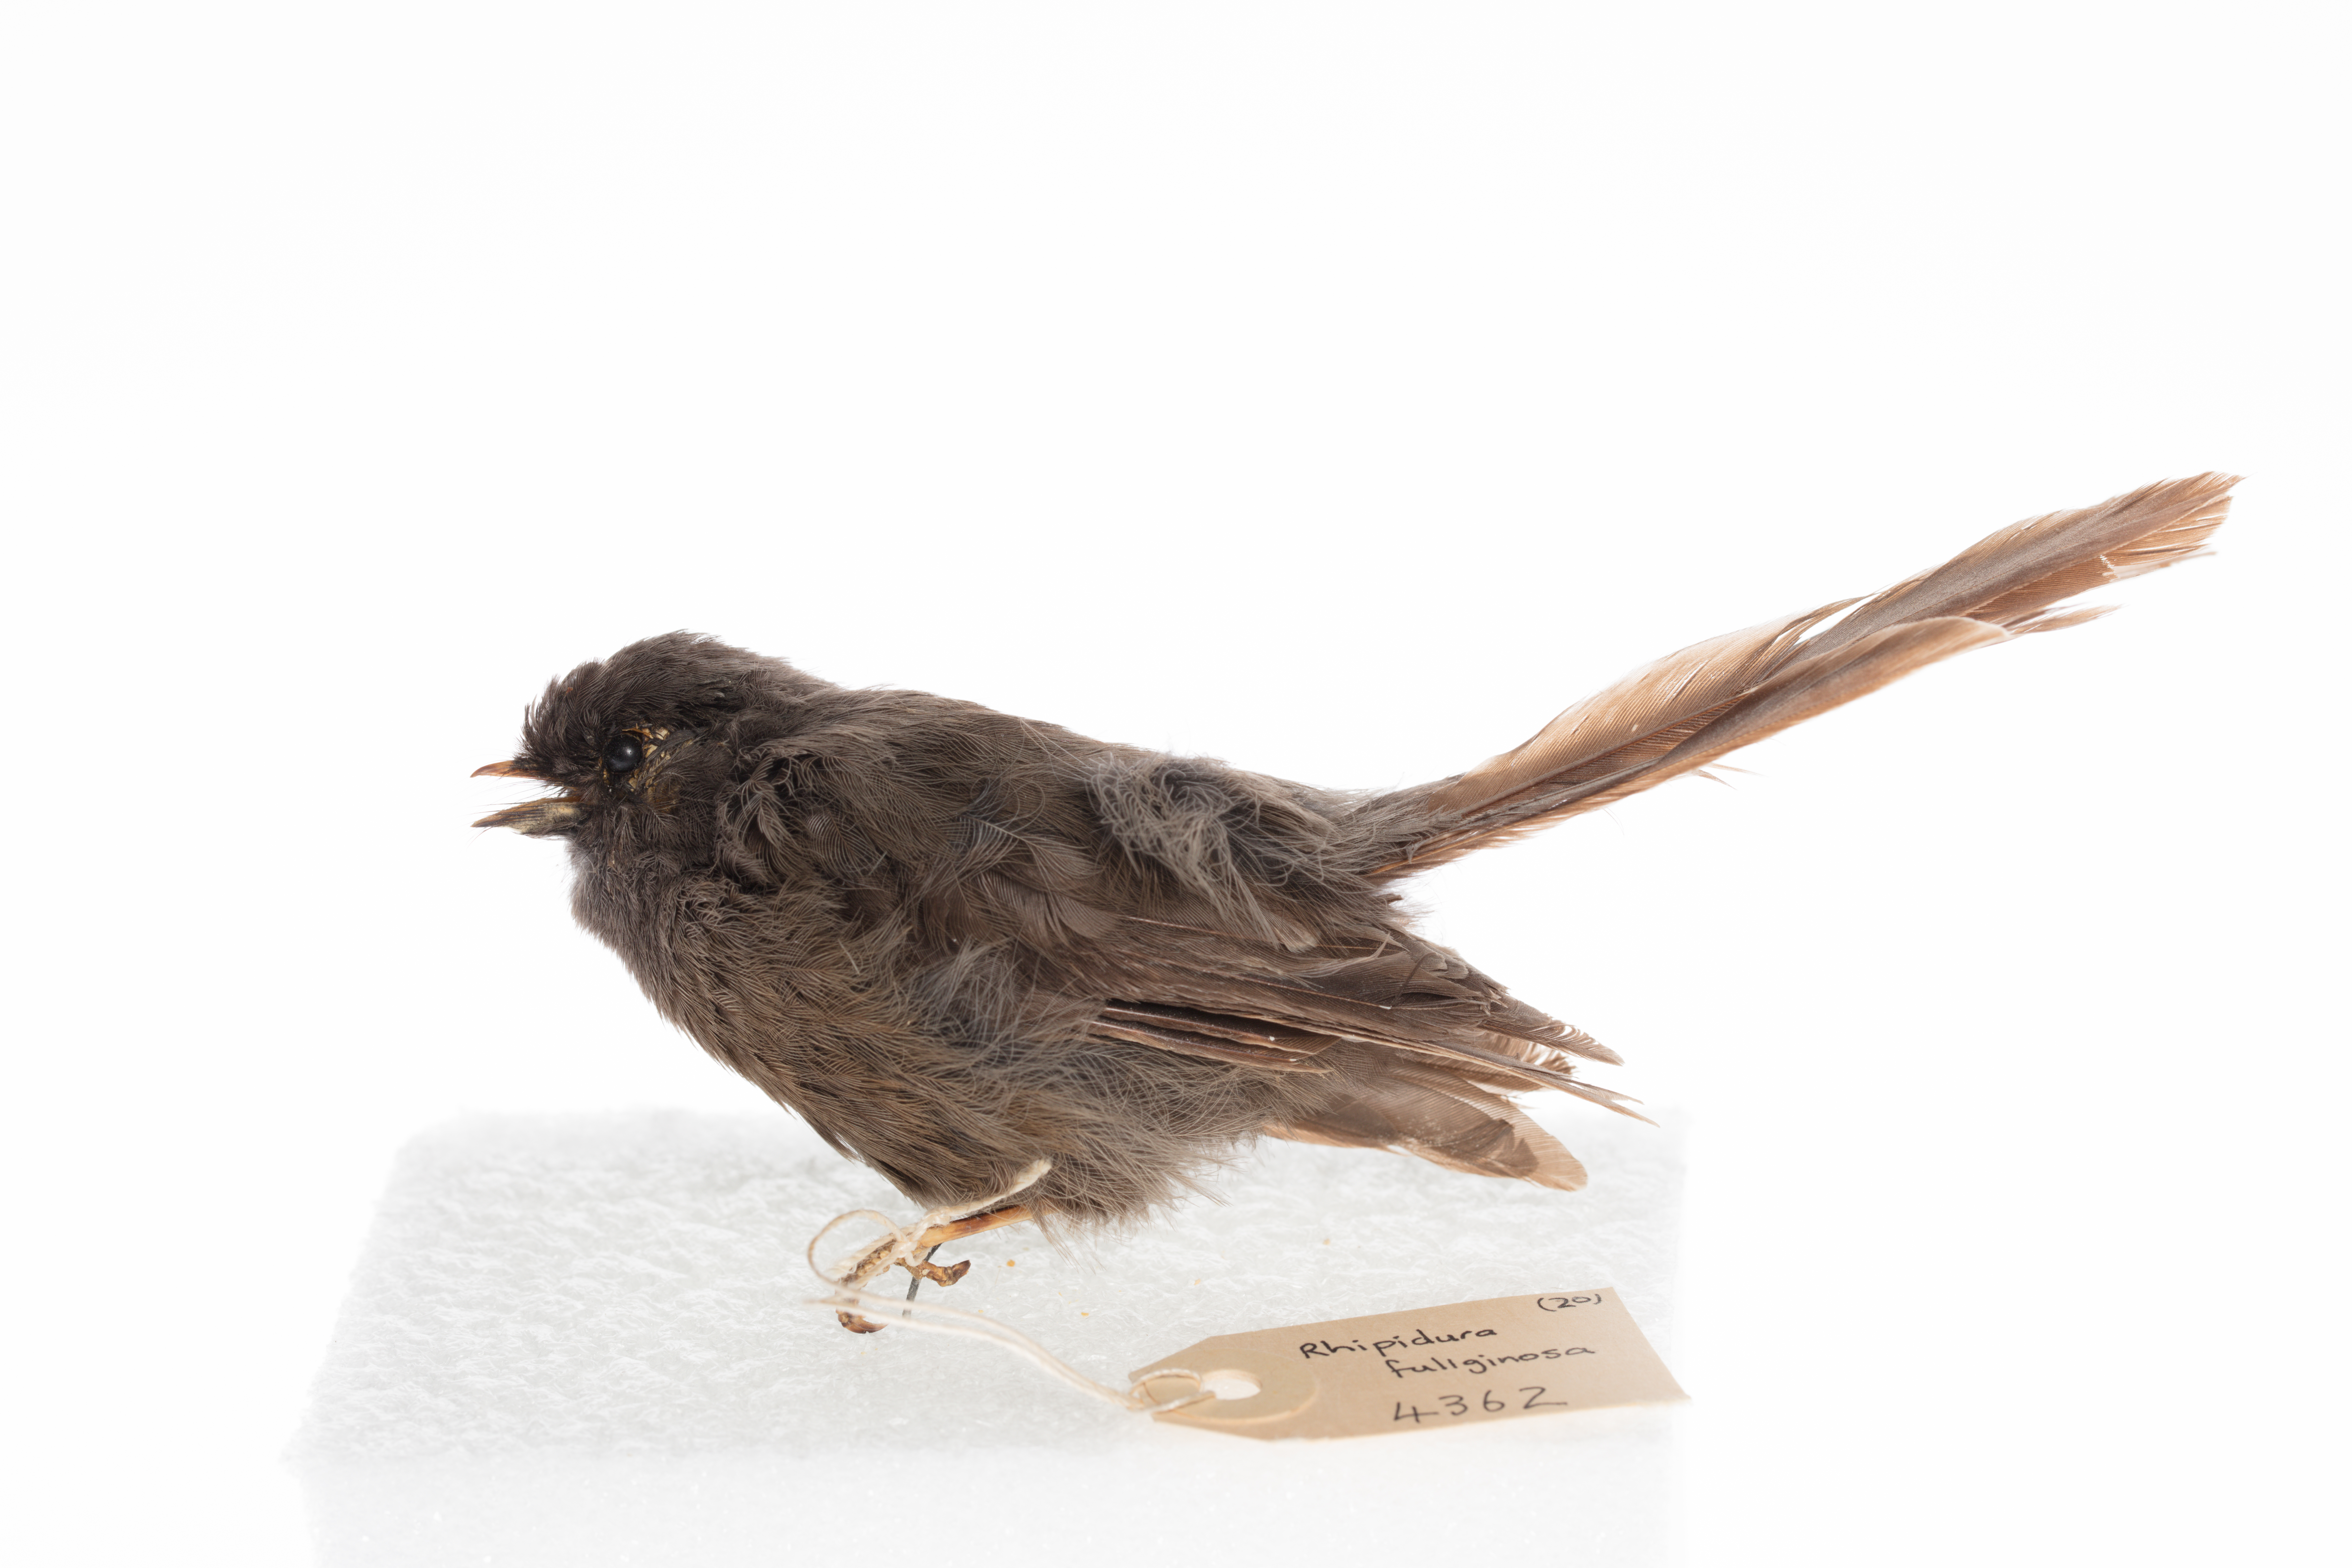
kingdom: Animalia
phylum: Chordata
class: Aves
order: Passeriformes
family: Rhipiduridae
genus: Rhipidura
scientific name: Rhipidura fuliginosa
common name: New zealand fantail
